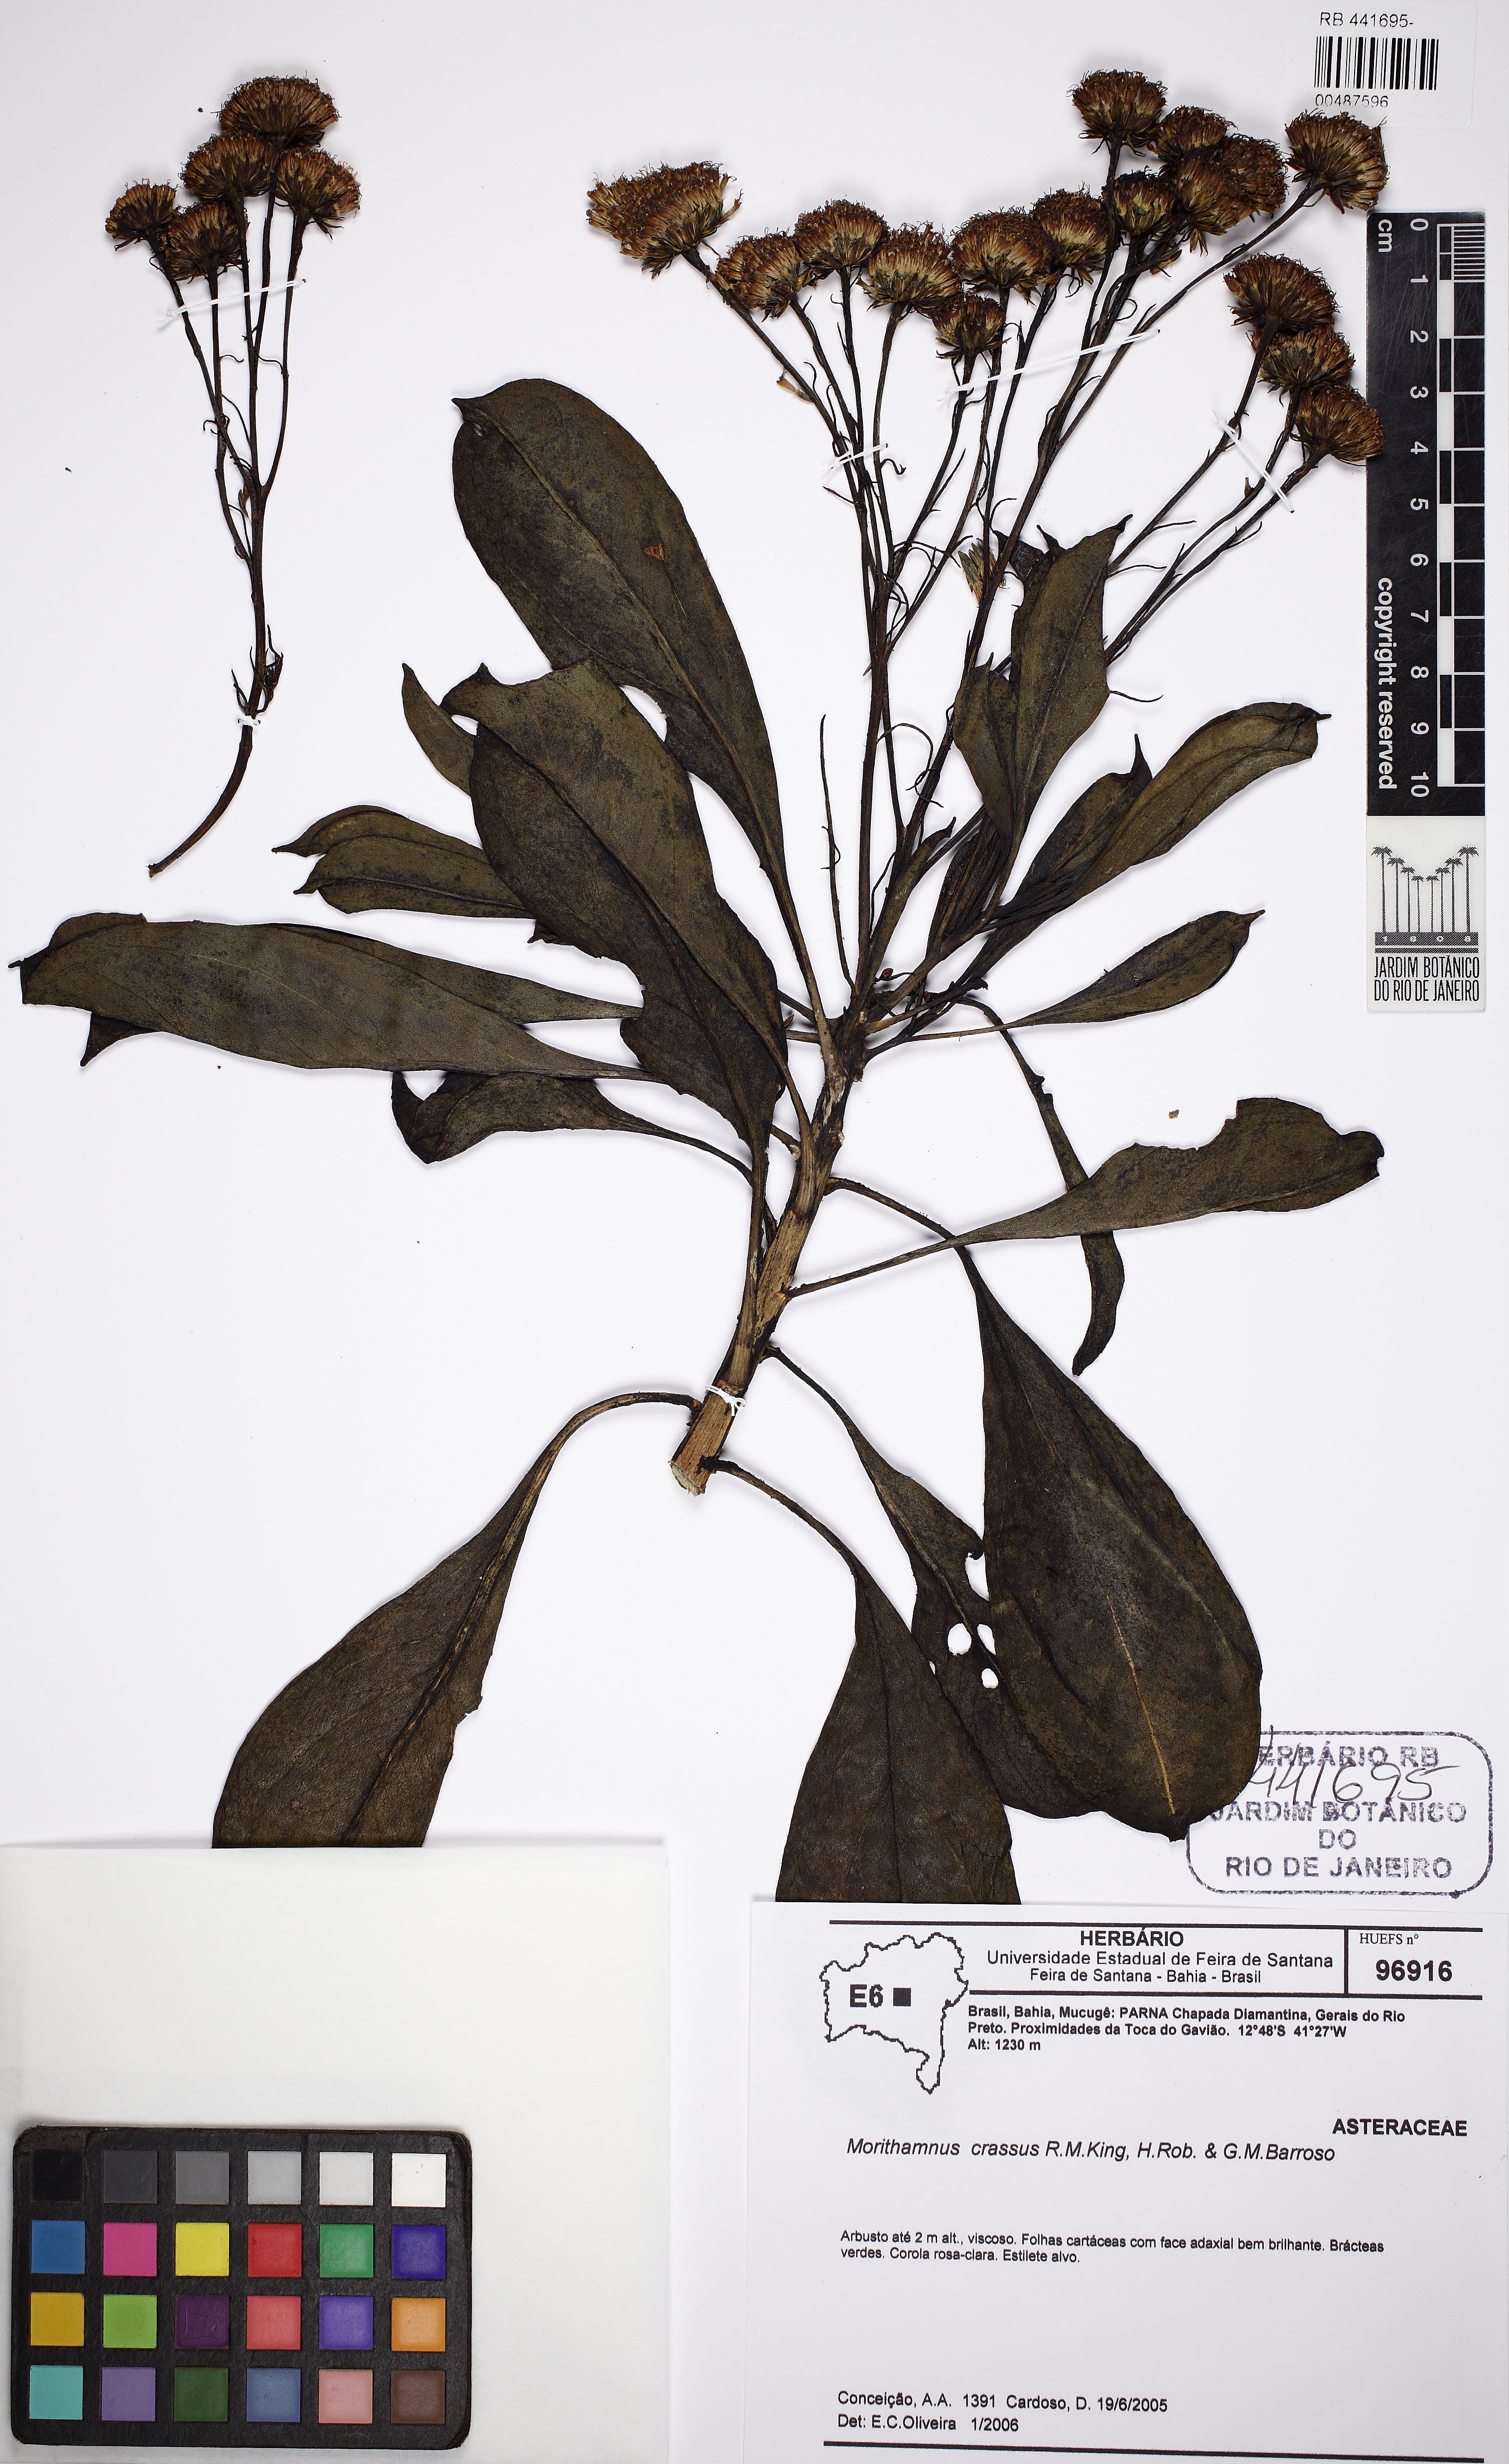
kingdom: Plantae
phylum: Tracheophyta
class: Magnoliopsida
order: Asterales
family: Asteraceae
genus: Morithamnus
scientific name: Morithamnus crassus
